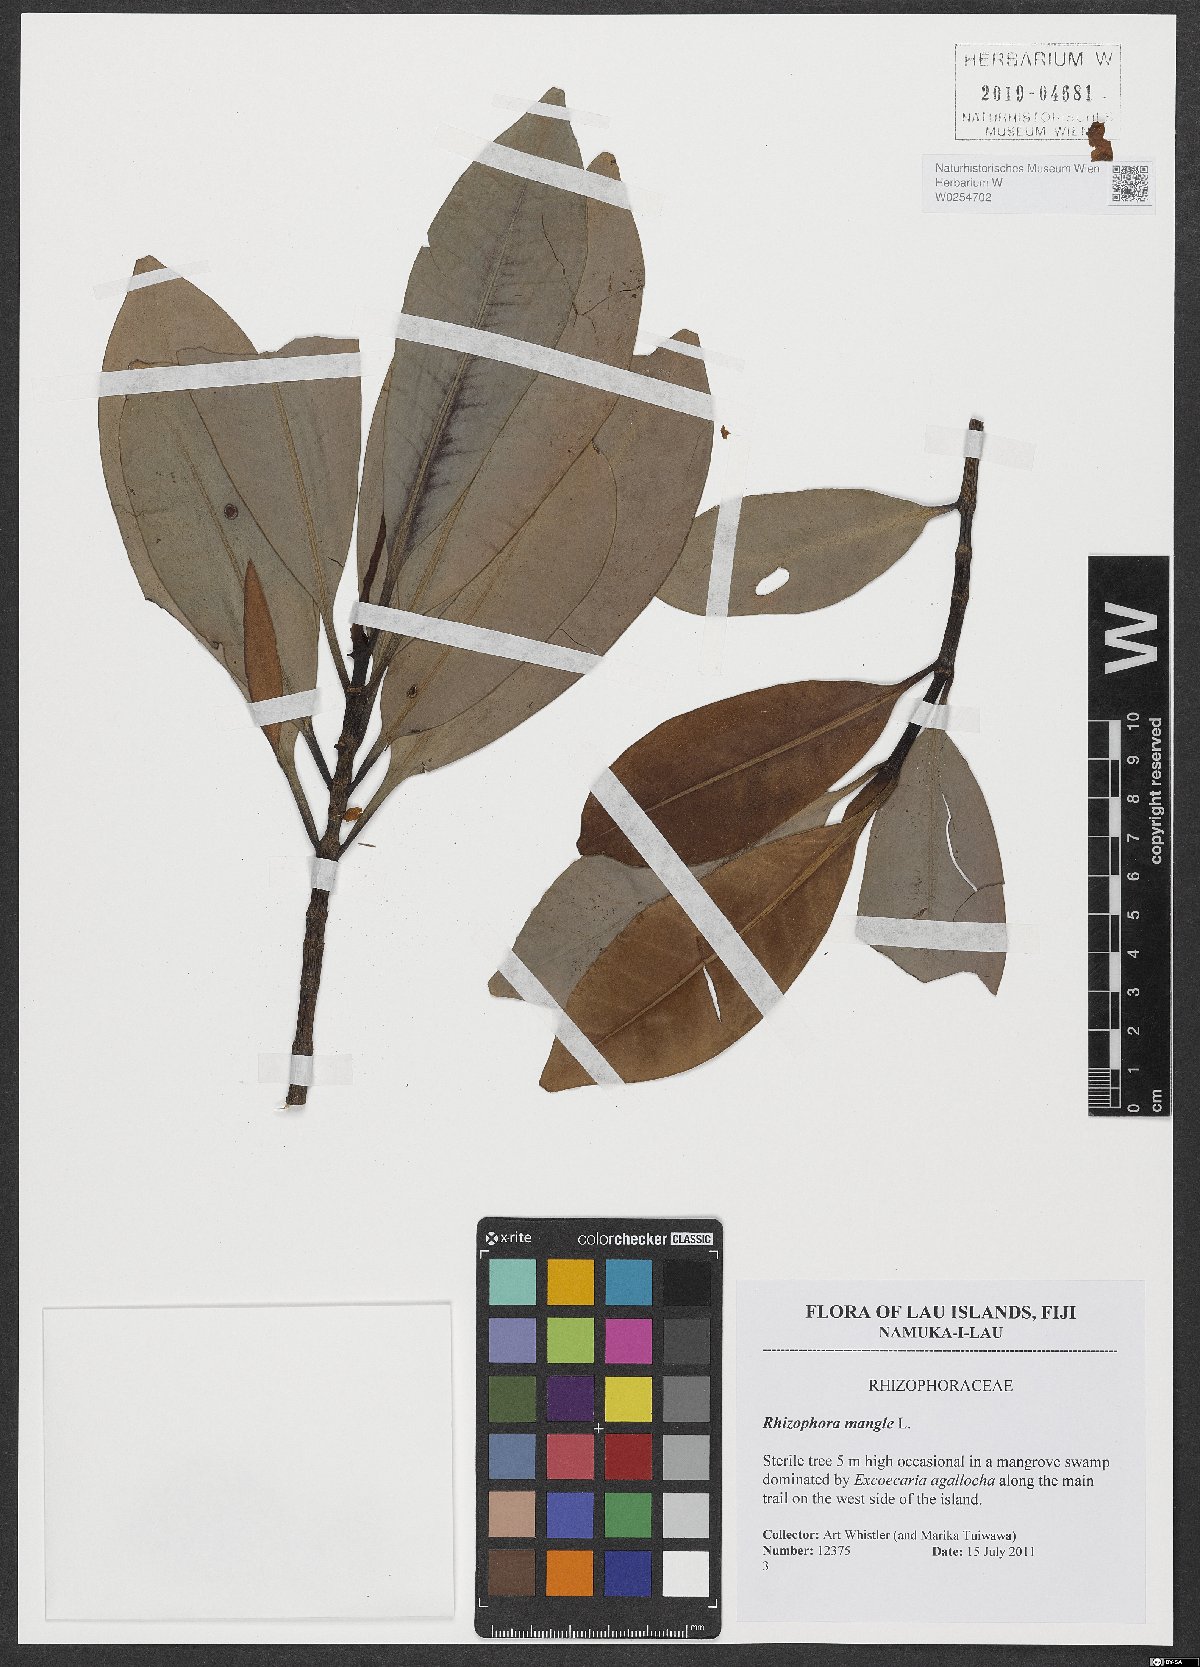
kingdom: Plantae
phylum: Tracheophyta
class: Magnoliopsida
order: Malpighiales
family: Rhizophoraceae
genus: Rhizophora
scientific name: Rhizophora mangle
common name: Red mangrove
